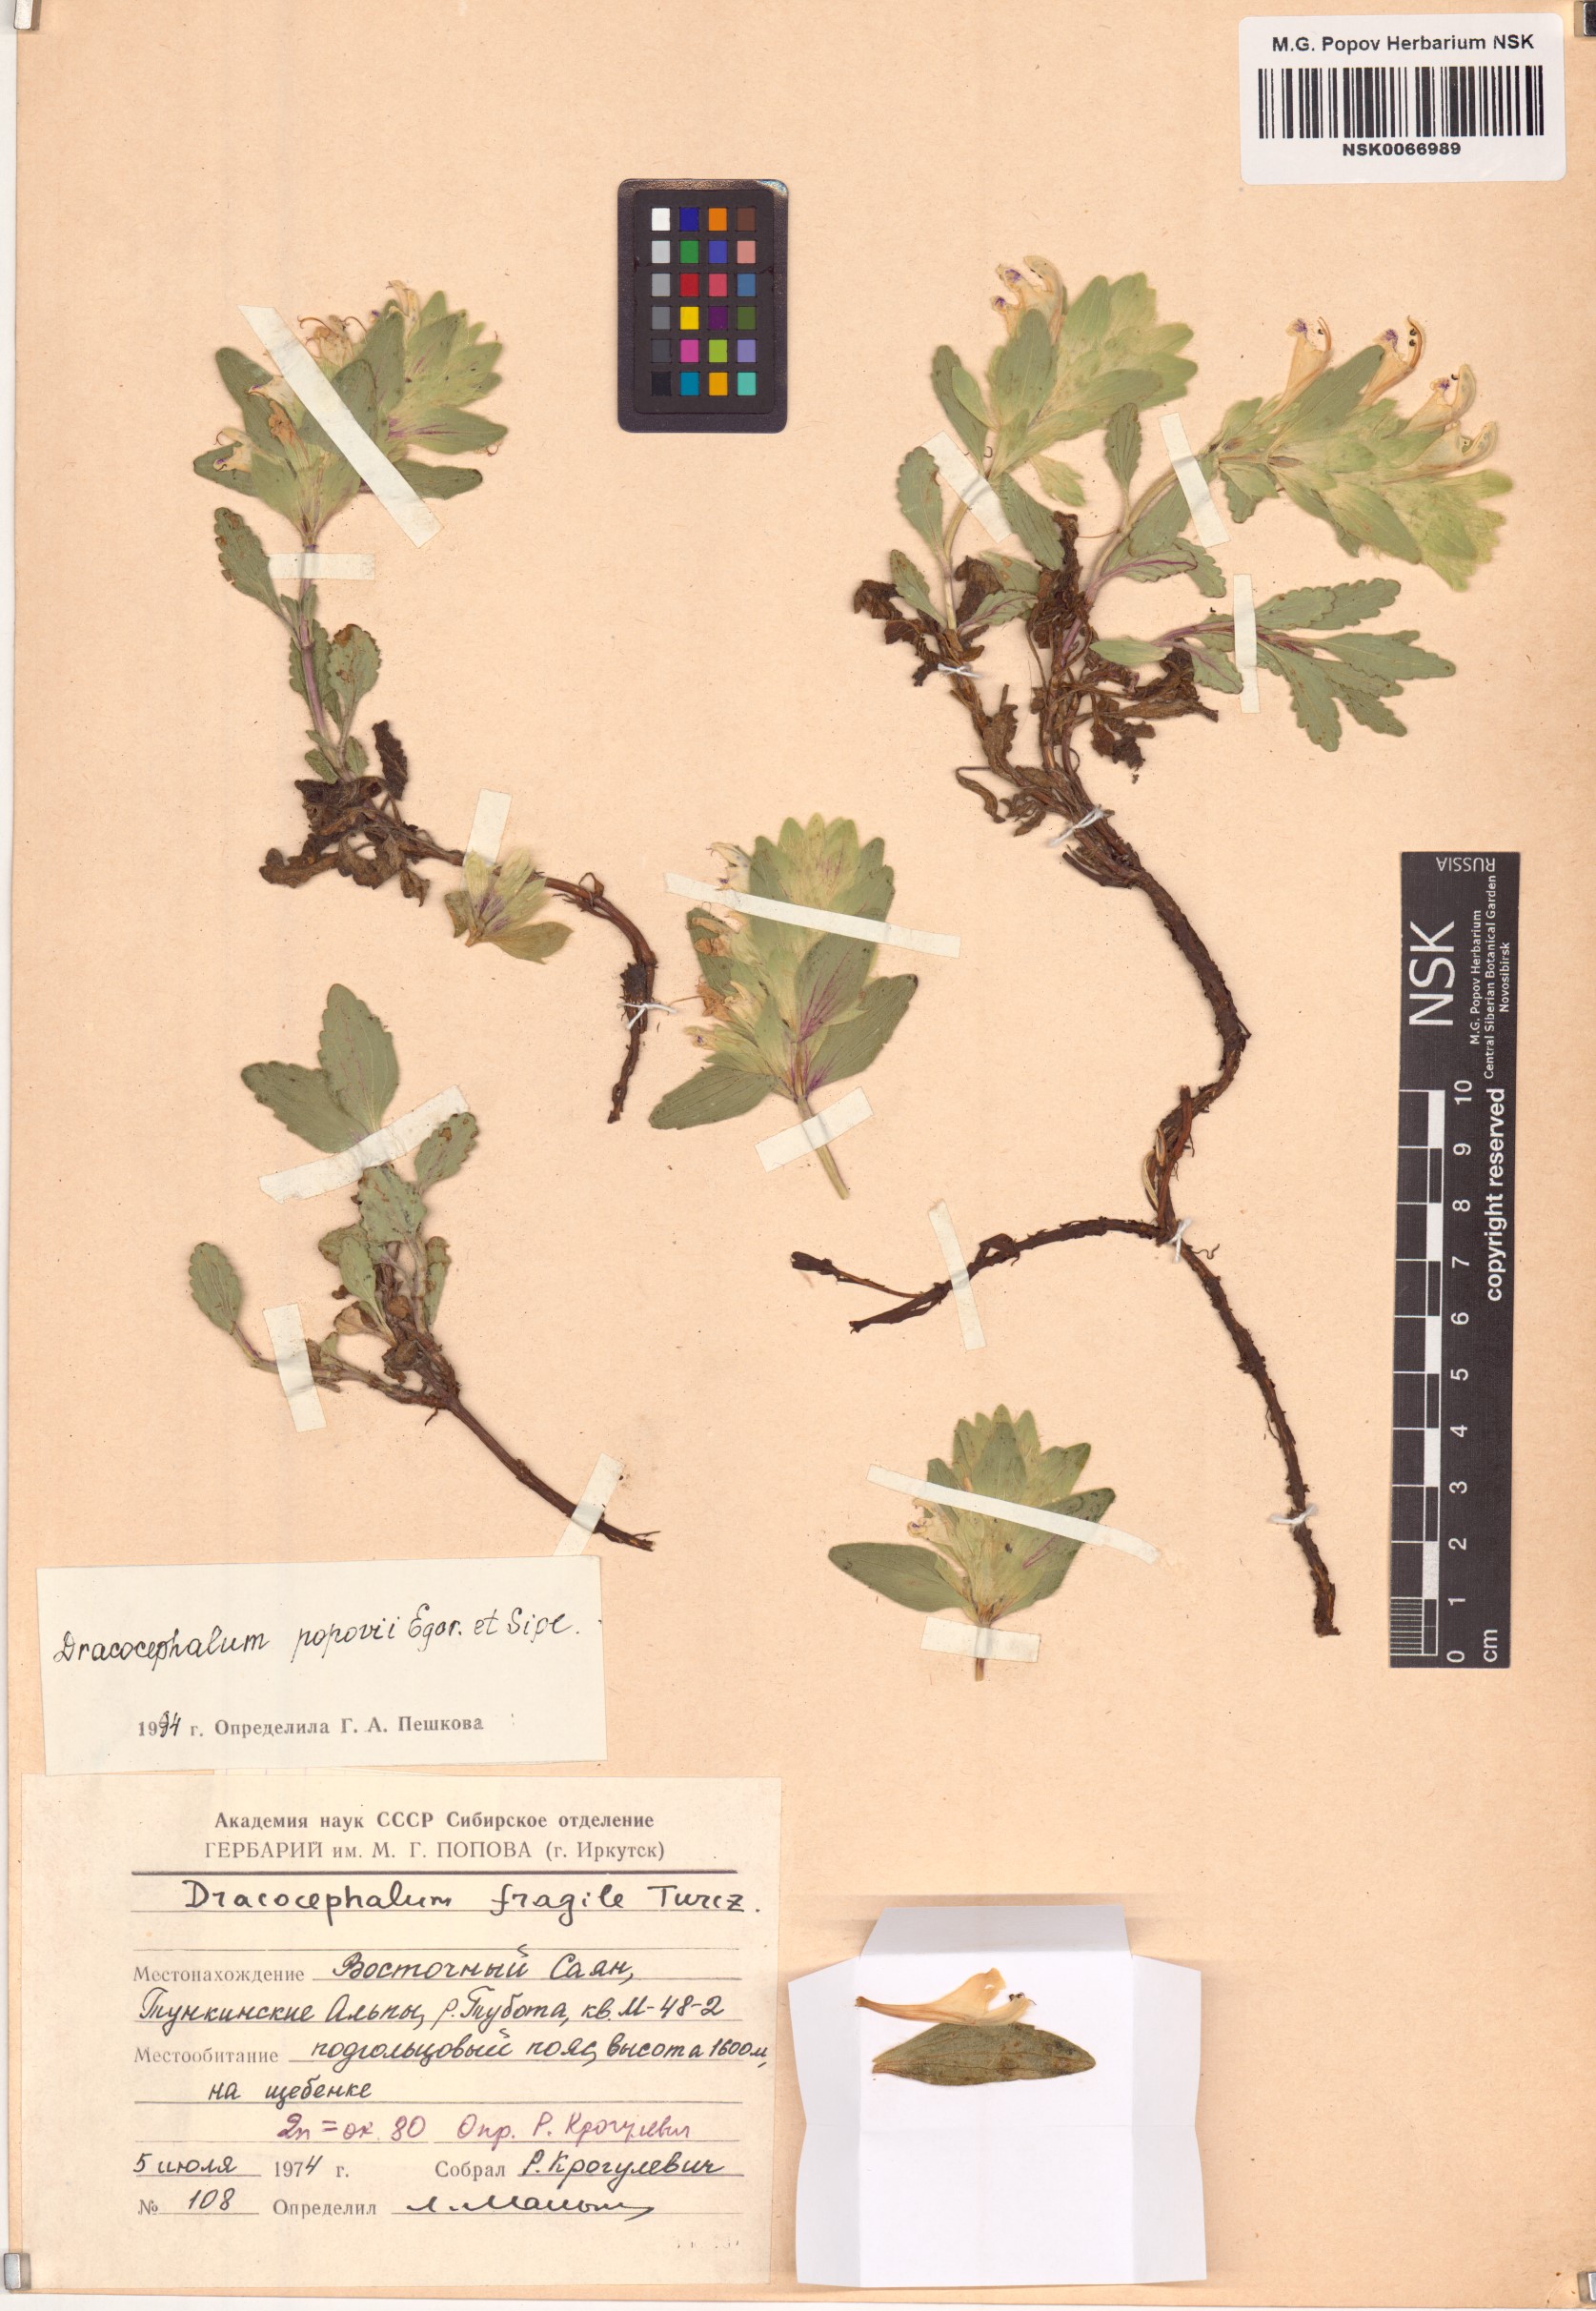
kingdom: Plantae
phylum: Tracheophyta
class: Magnoliopsida
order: Lamiales
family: Lamiaceae
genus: Dracocephalum
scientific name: Dracocephalum popovii
